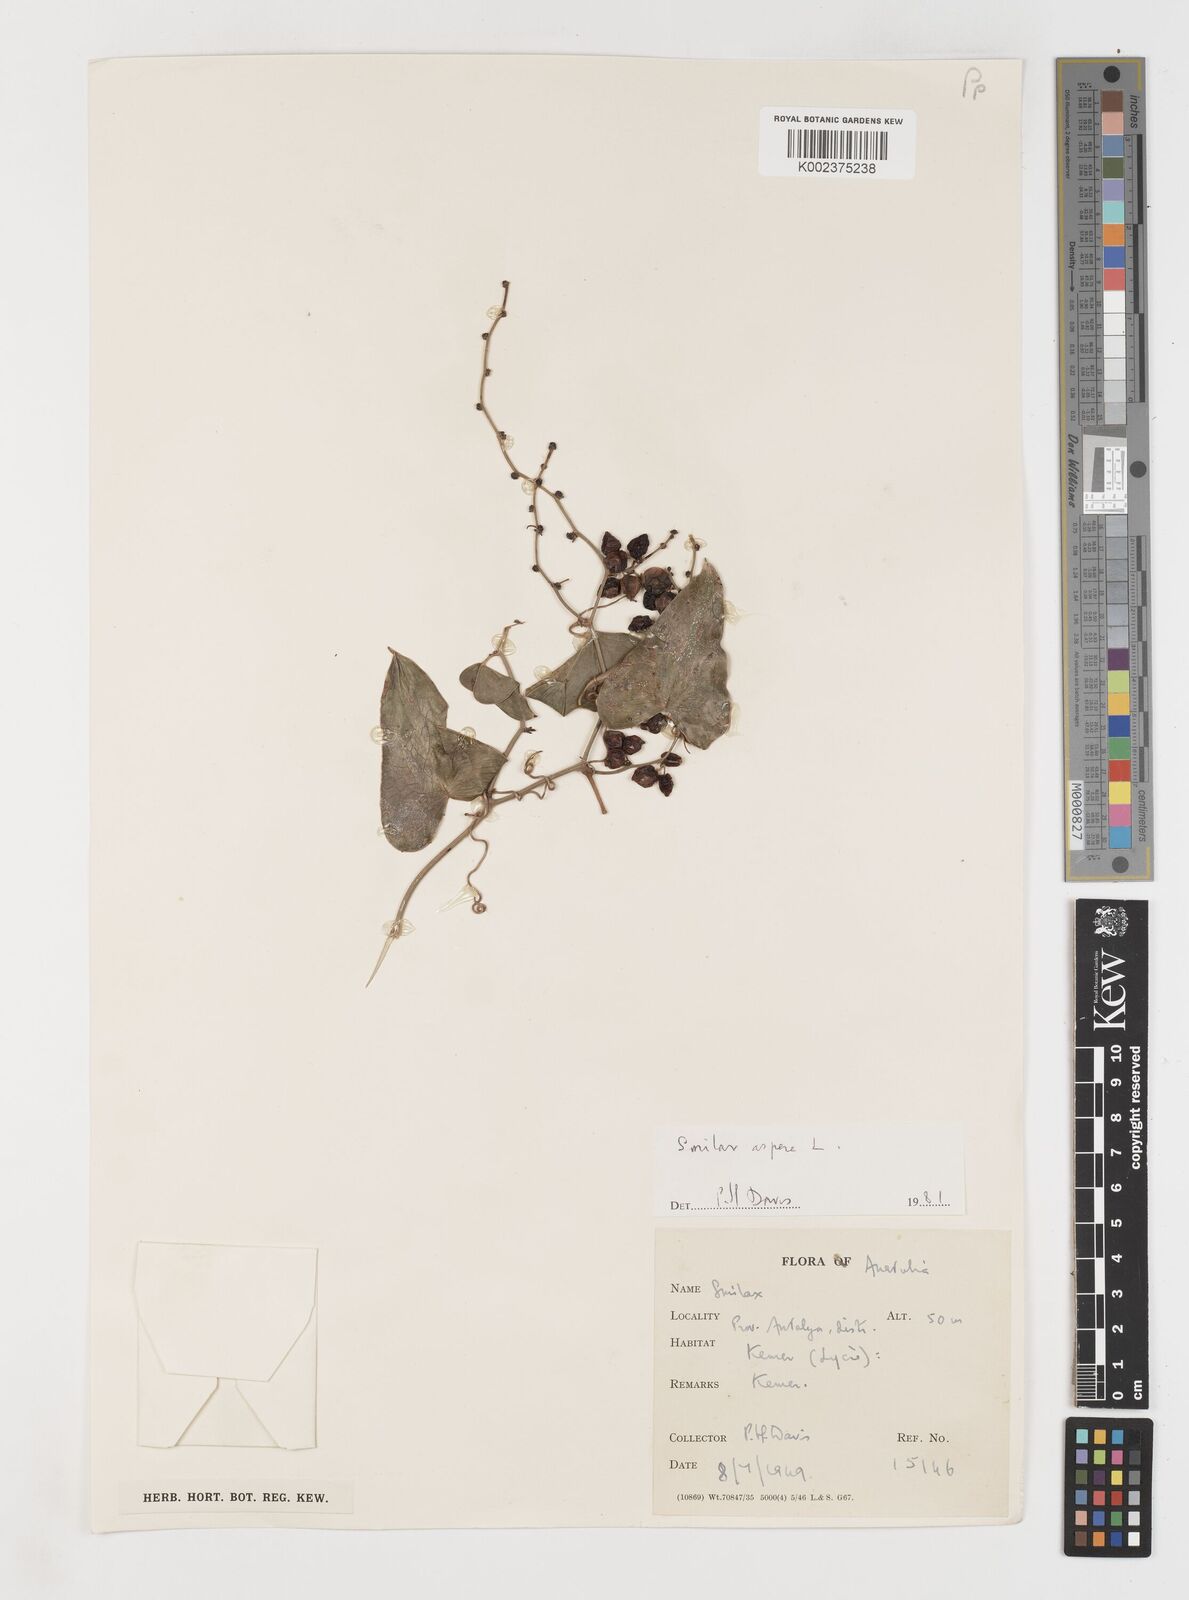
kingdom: Plantae
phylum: Tracheophyta
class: Liliopsida
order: Liliales
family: Smilacaceae
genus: Smilax
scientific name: Smilax aspera
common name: Common smilax
